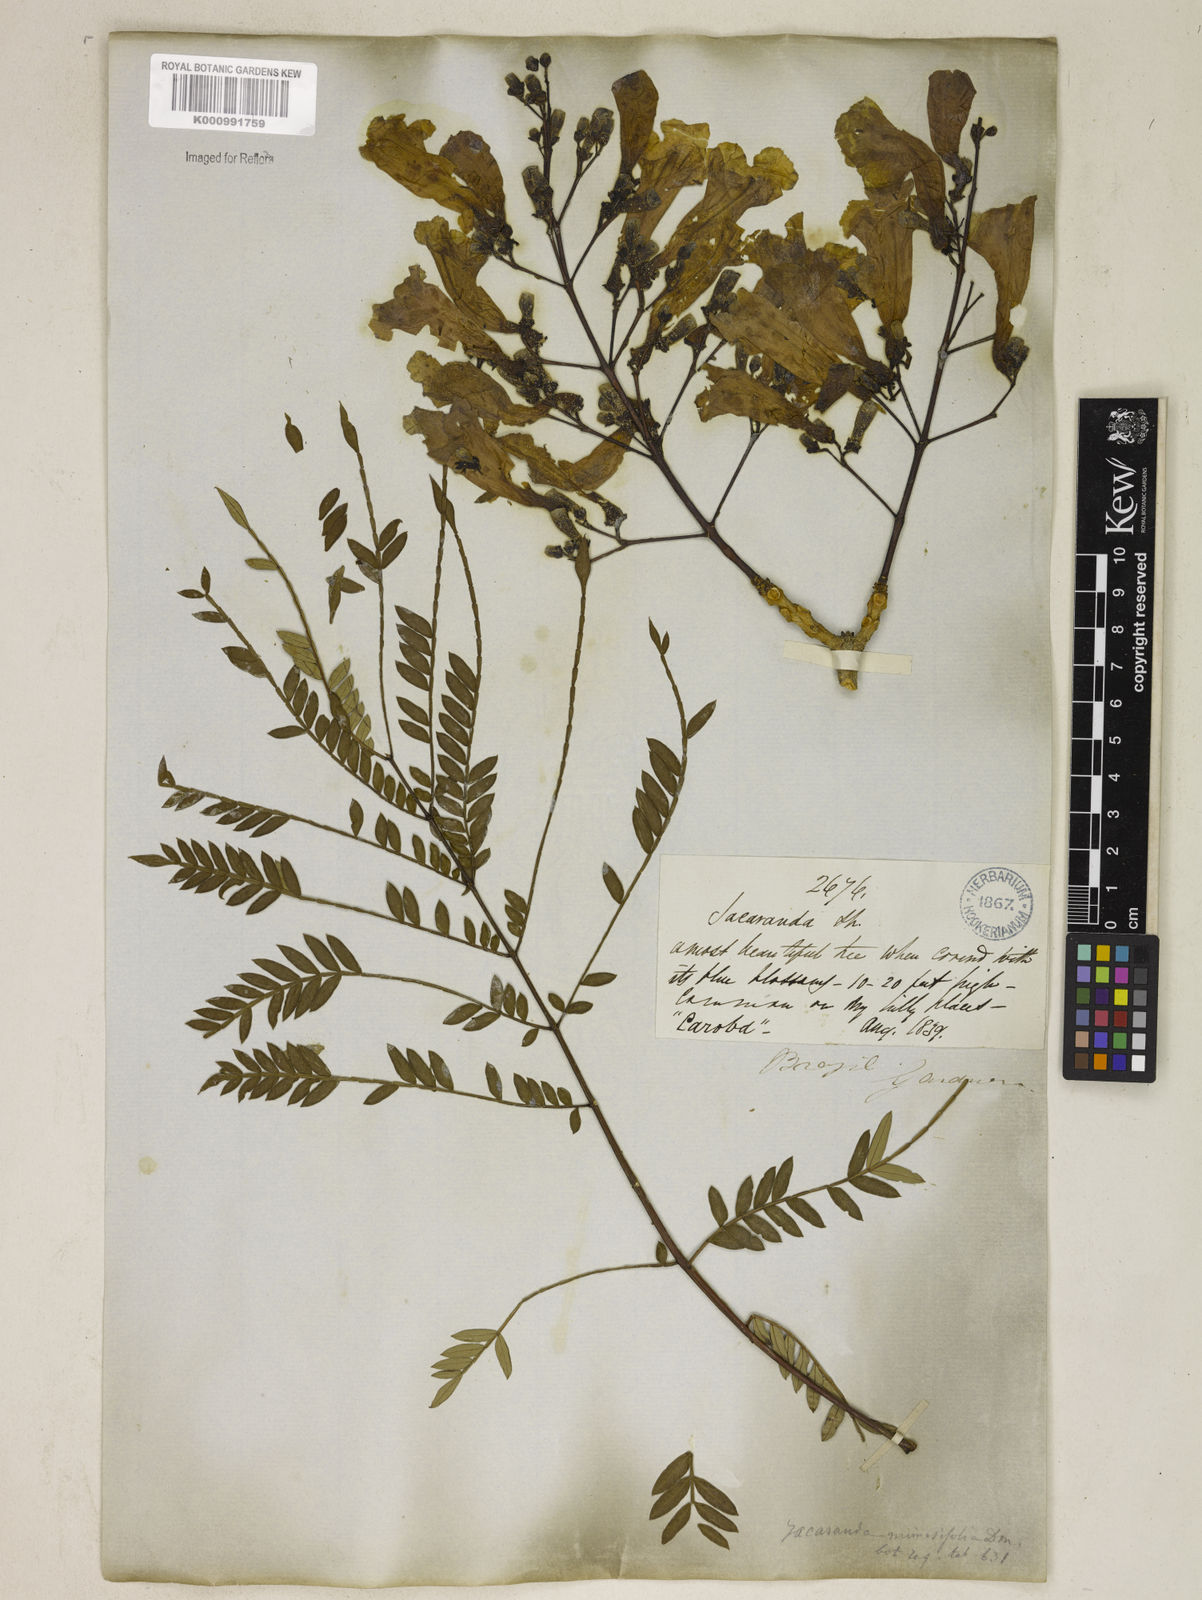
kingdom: Plantae
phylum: Tracheophyta
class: Magnoliopsida
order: Lamiales
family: Bignoniaceae
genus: Jacaranda
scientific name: Jacaranda brasiliana
